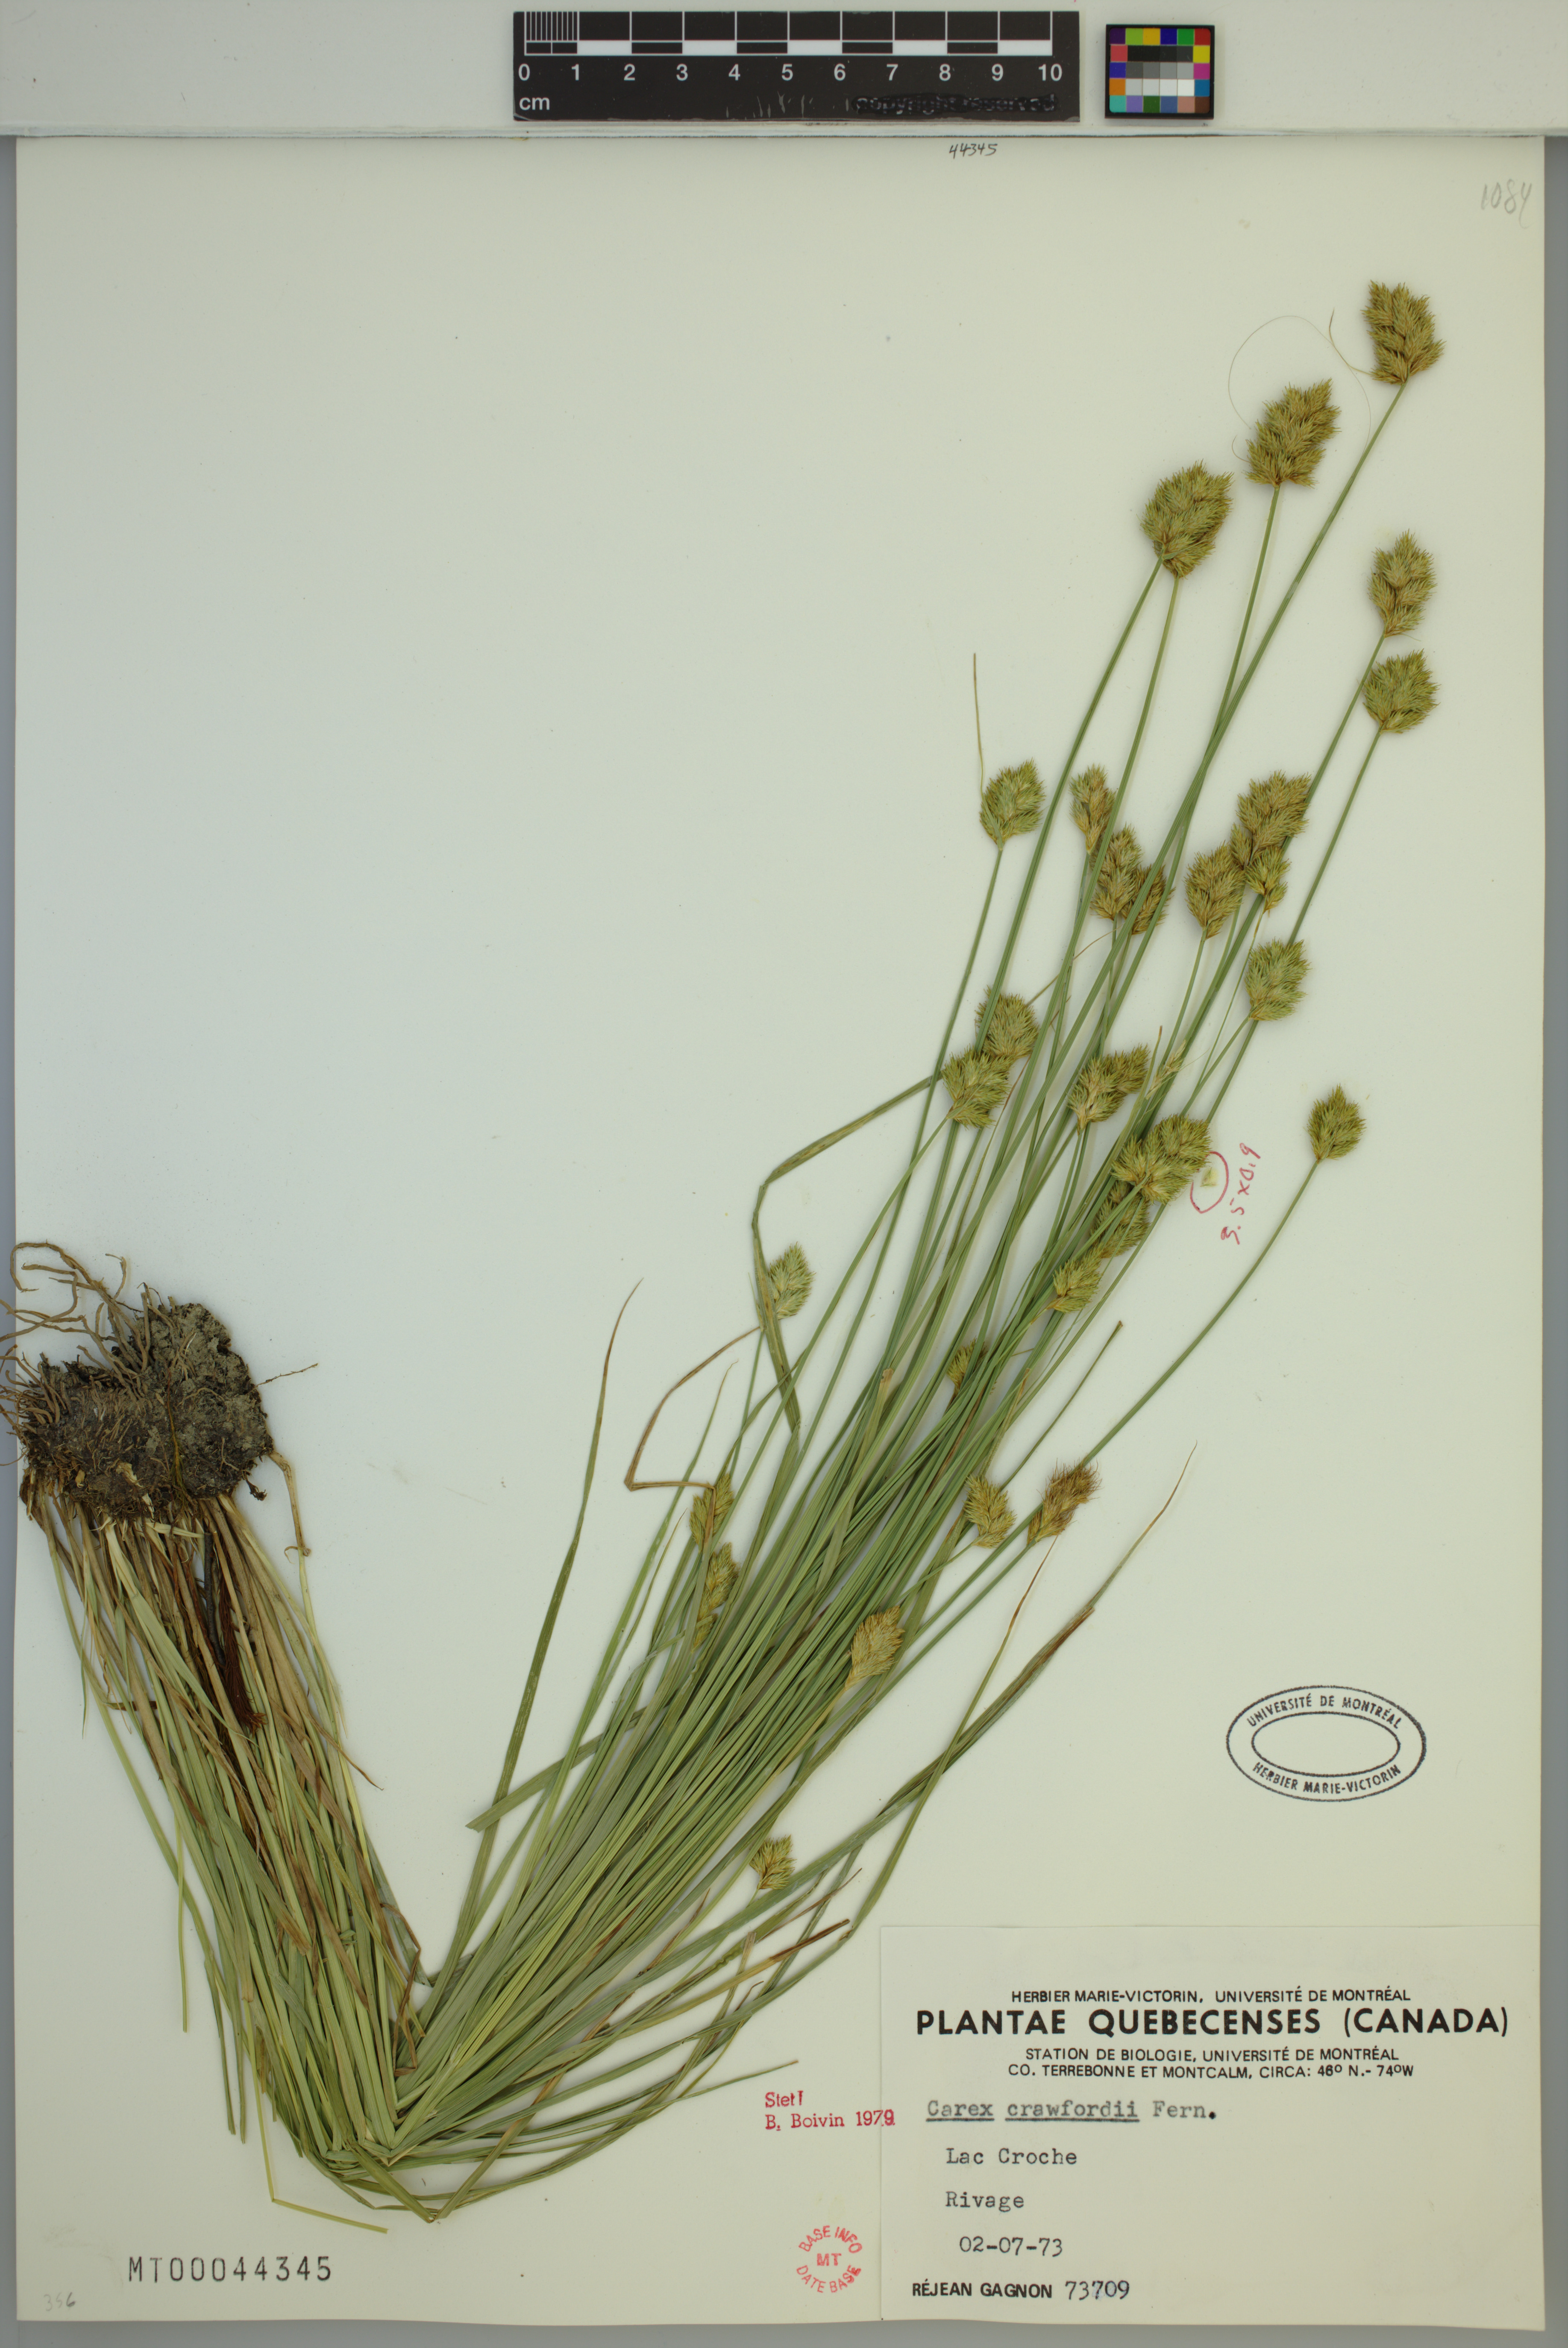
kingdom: Plantae
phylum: Tracheophyta
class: Liliopsida
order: Poales
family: Cyperaceae
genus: Carex
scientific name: Carex crawfordii
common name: Crawford's sedge
